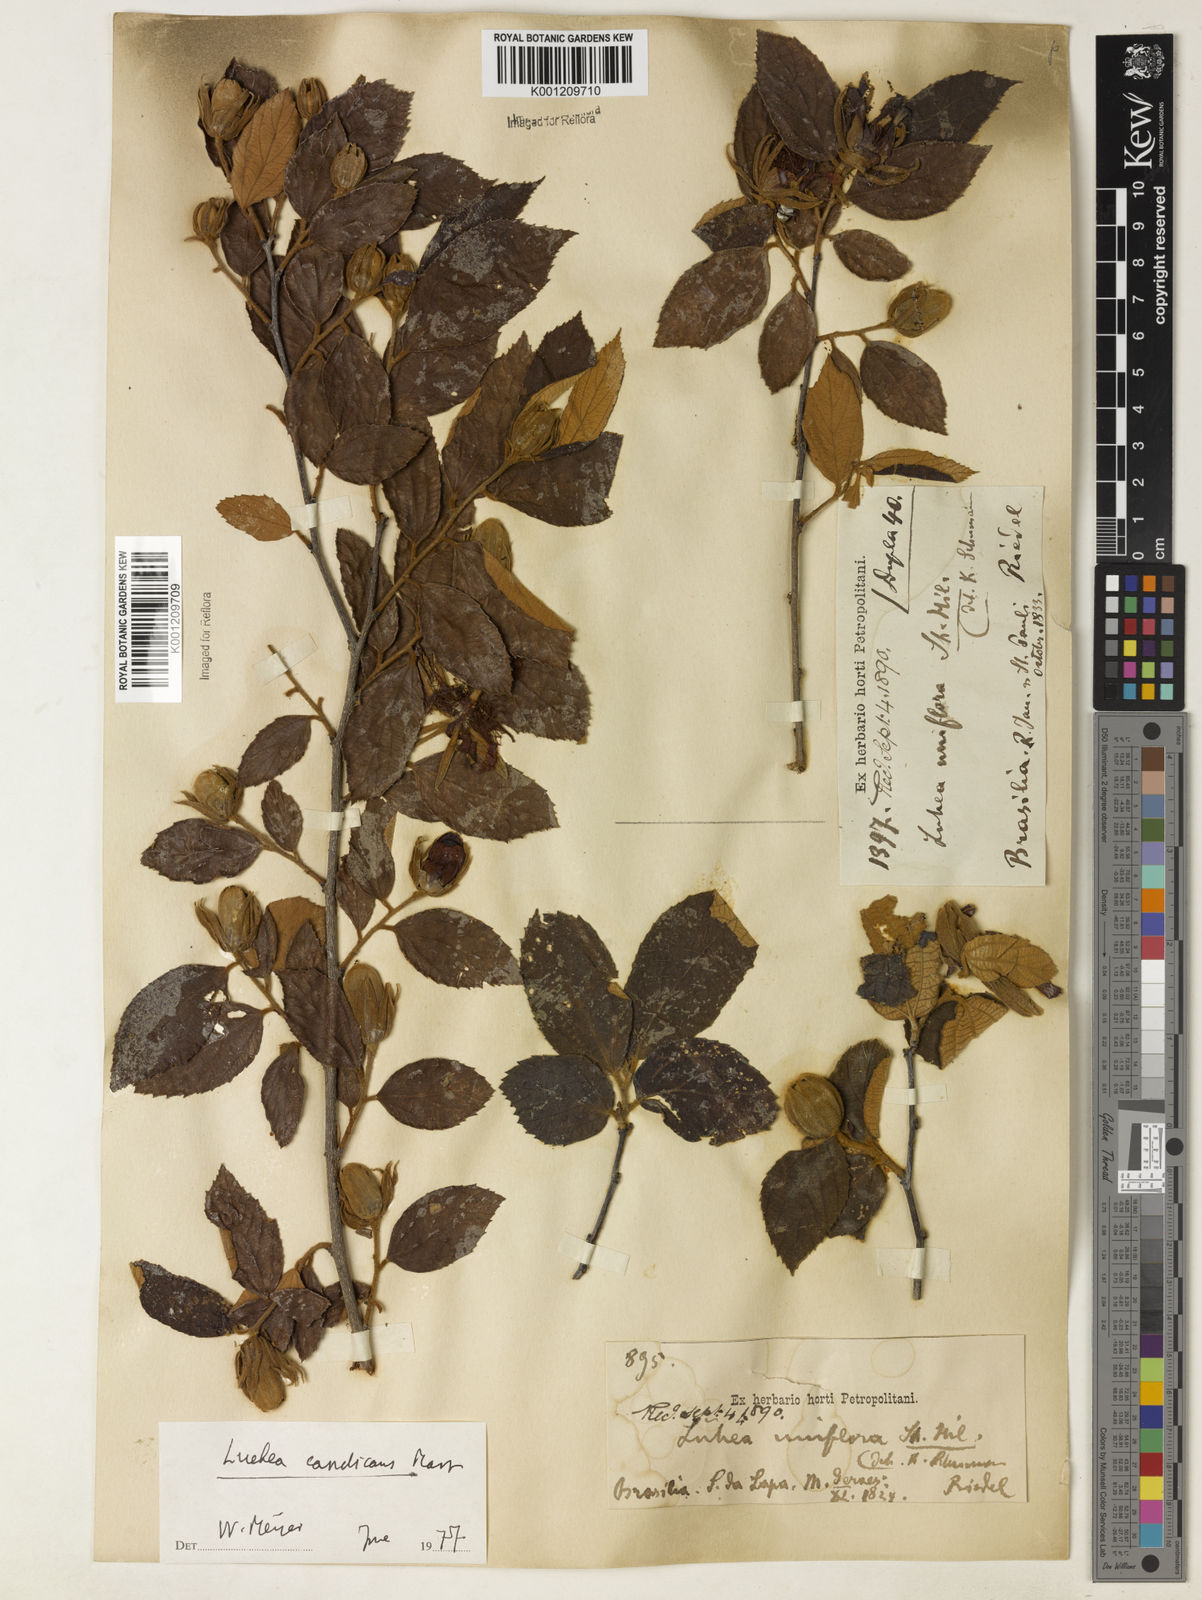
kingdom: Plantae
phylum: Tracheophyta
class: Magnoliopsida
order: Malvales
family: Malvaceae
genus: Luehea
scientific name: Luehea candicans
